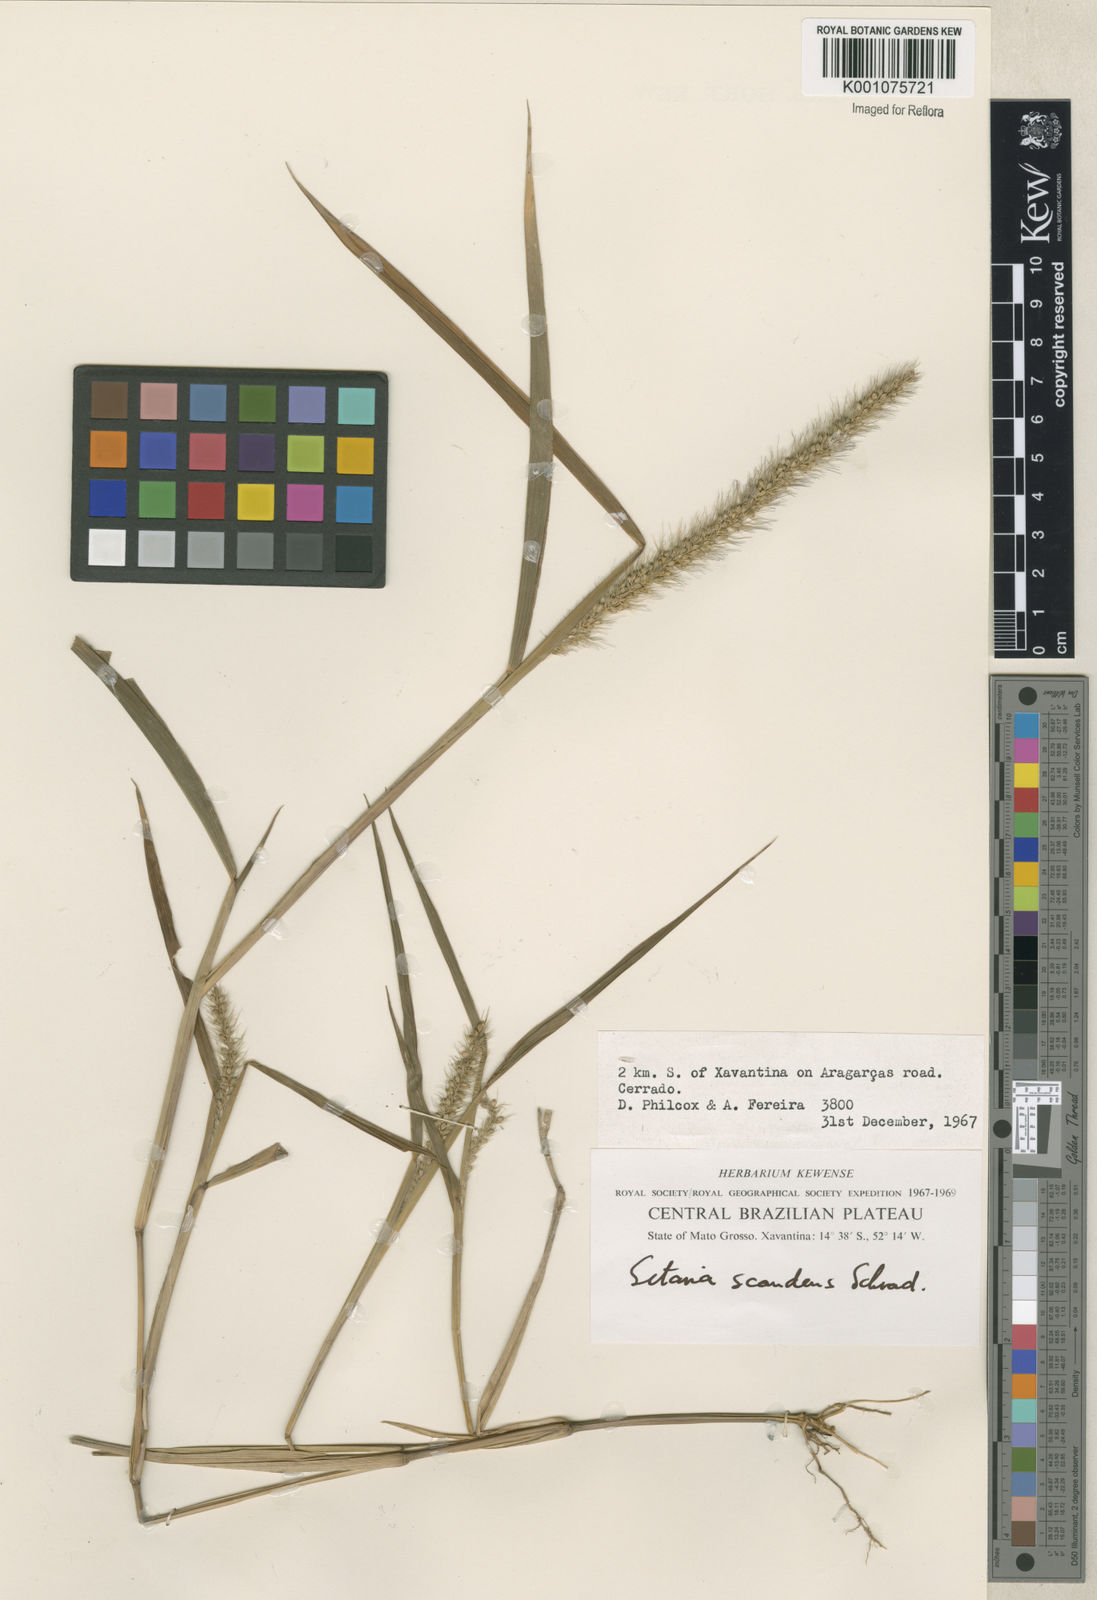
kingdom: Plantae
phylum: Tracheophyta
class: Liliopsida
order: Poales
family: Poaceae
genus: Setaria
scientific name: Setaria scandens
